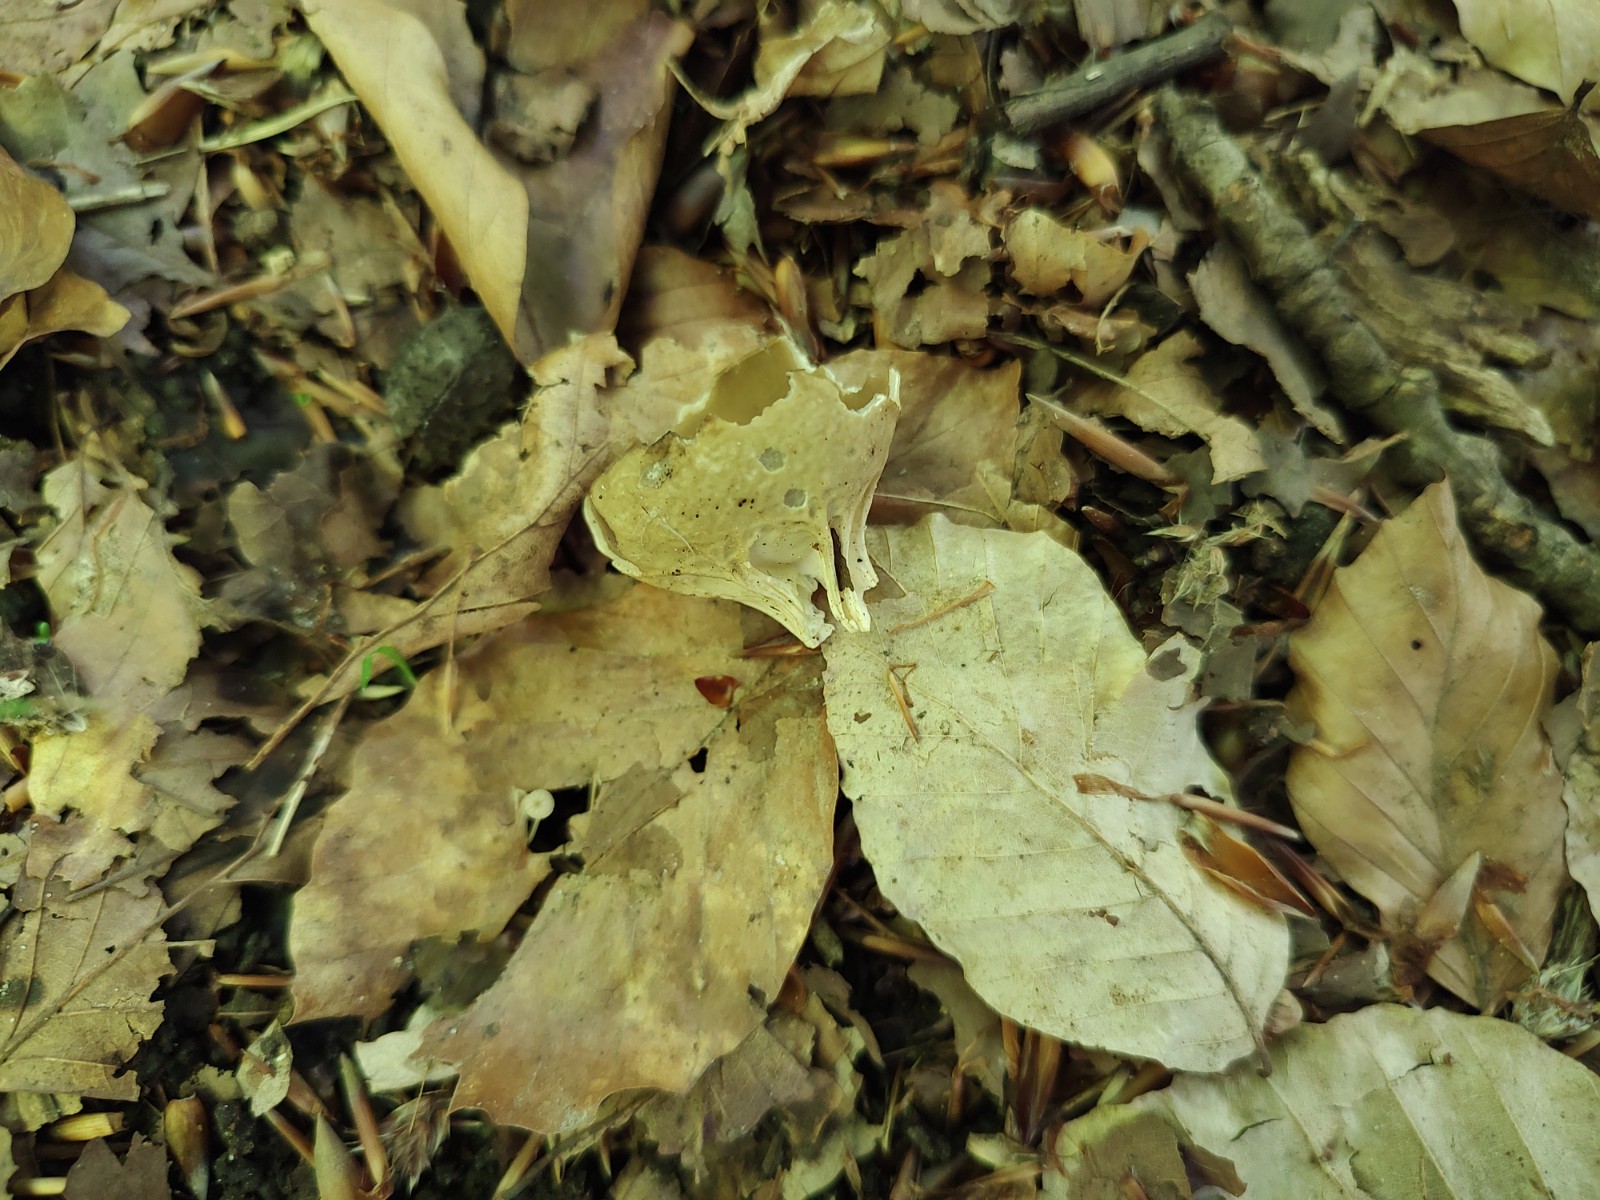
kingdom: Fungi
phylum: Ascomycota
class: Pezizomycetes
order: Pezizales
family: Helvellaceae
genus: Helvella
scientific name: Helvella acetabulum
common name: pokal-foldhat
